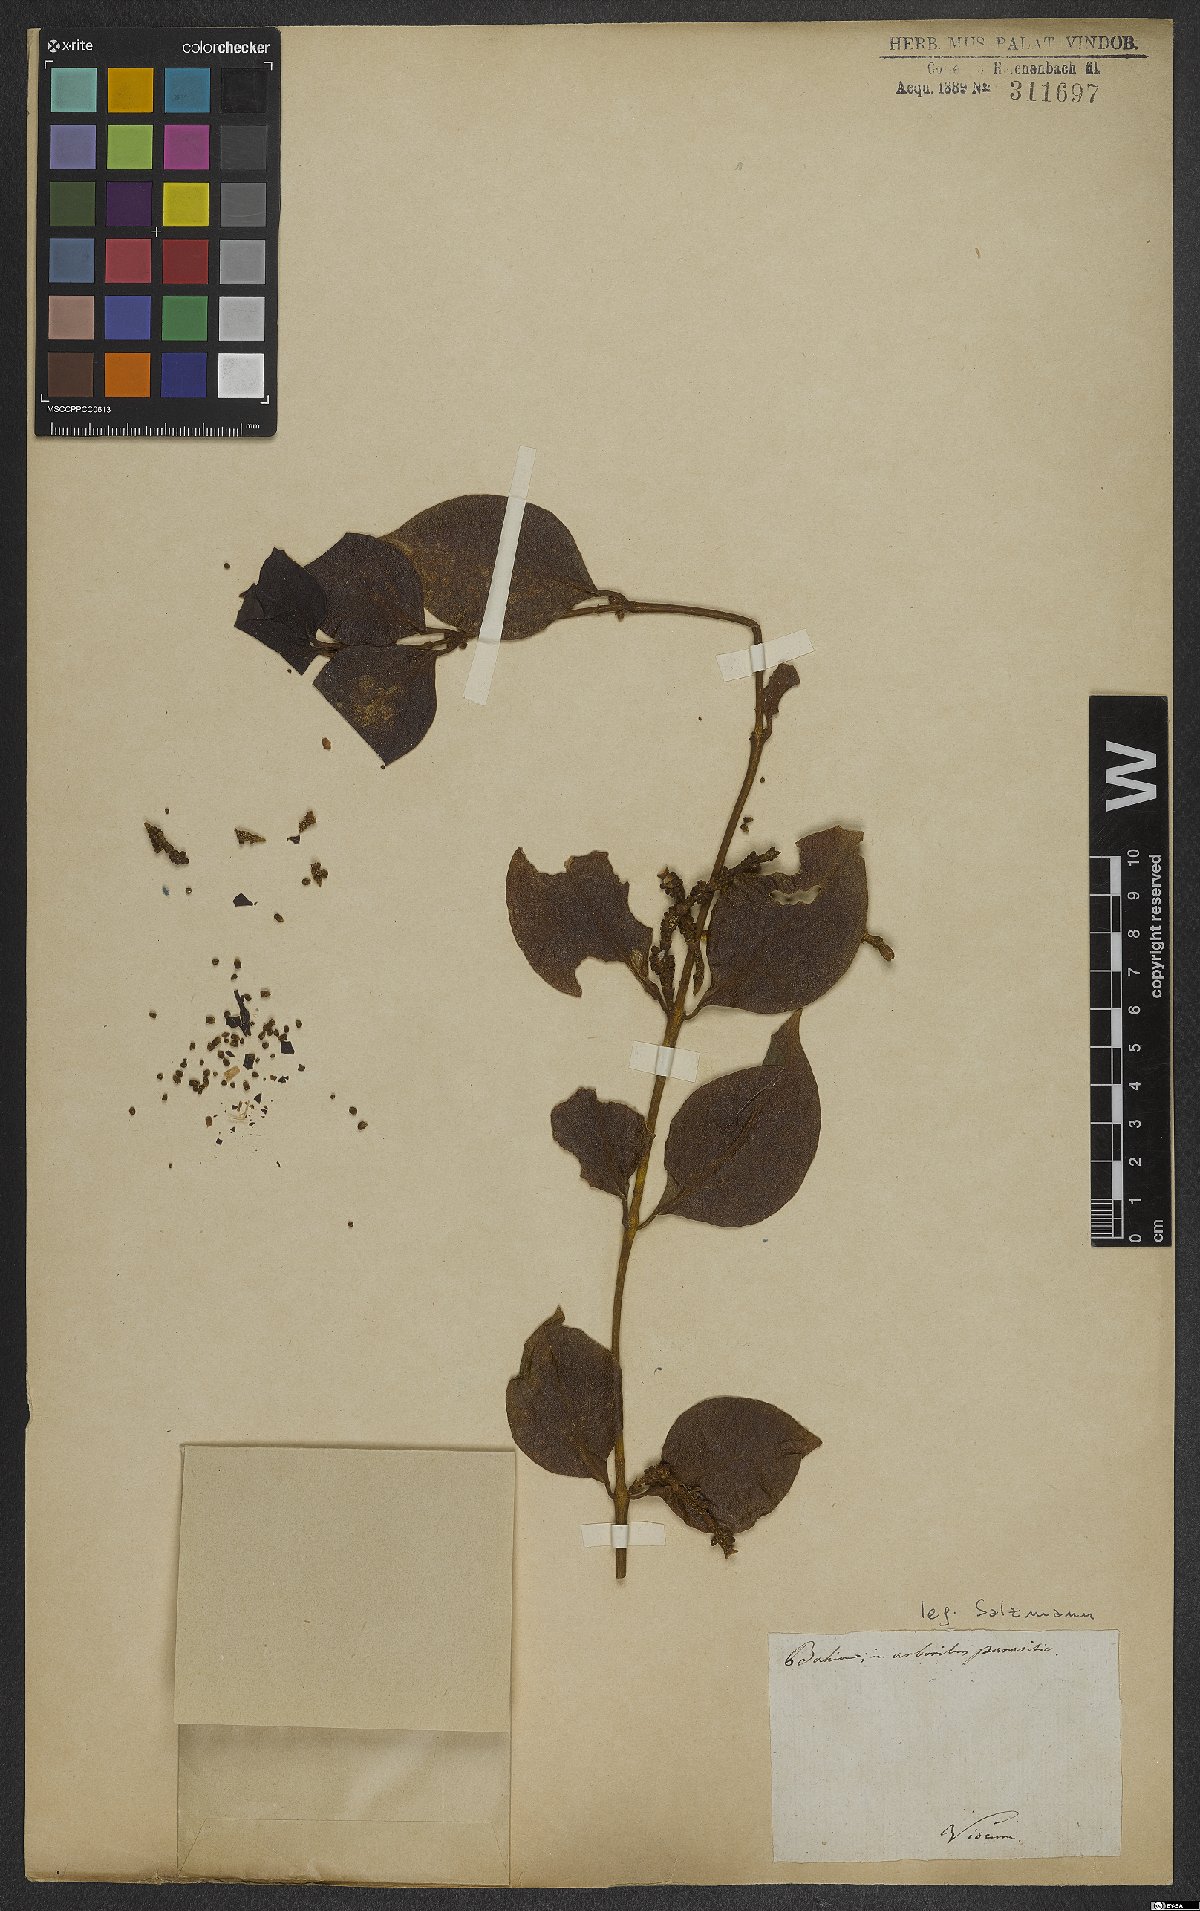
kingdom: Plantae
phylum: Tracheophyta
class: Magnoliopsida
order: Santalales
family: Viscaceae
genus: Viscum
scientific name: Viscum
